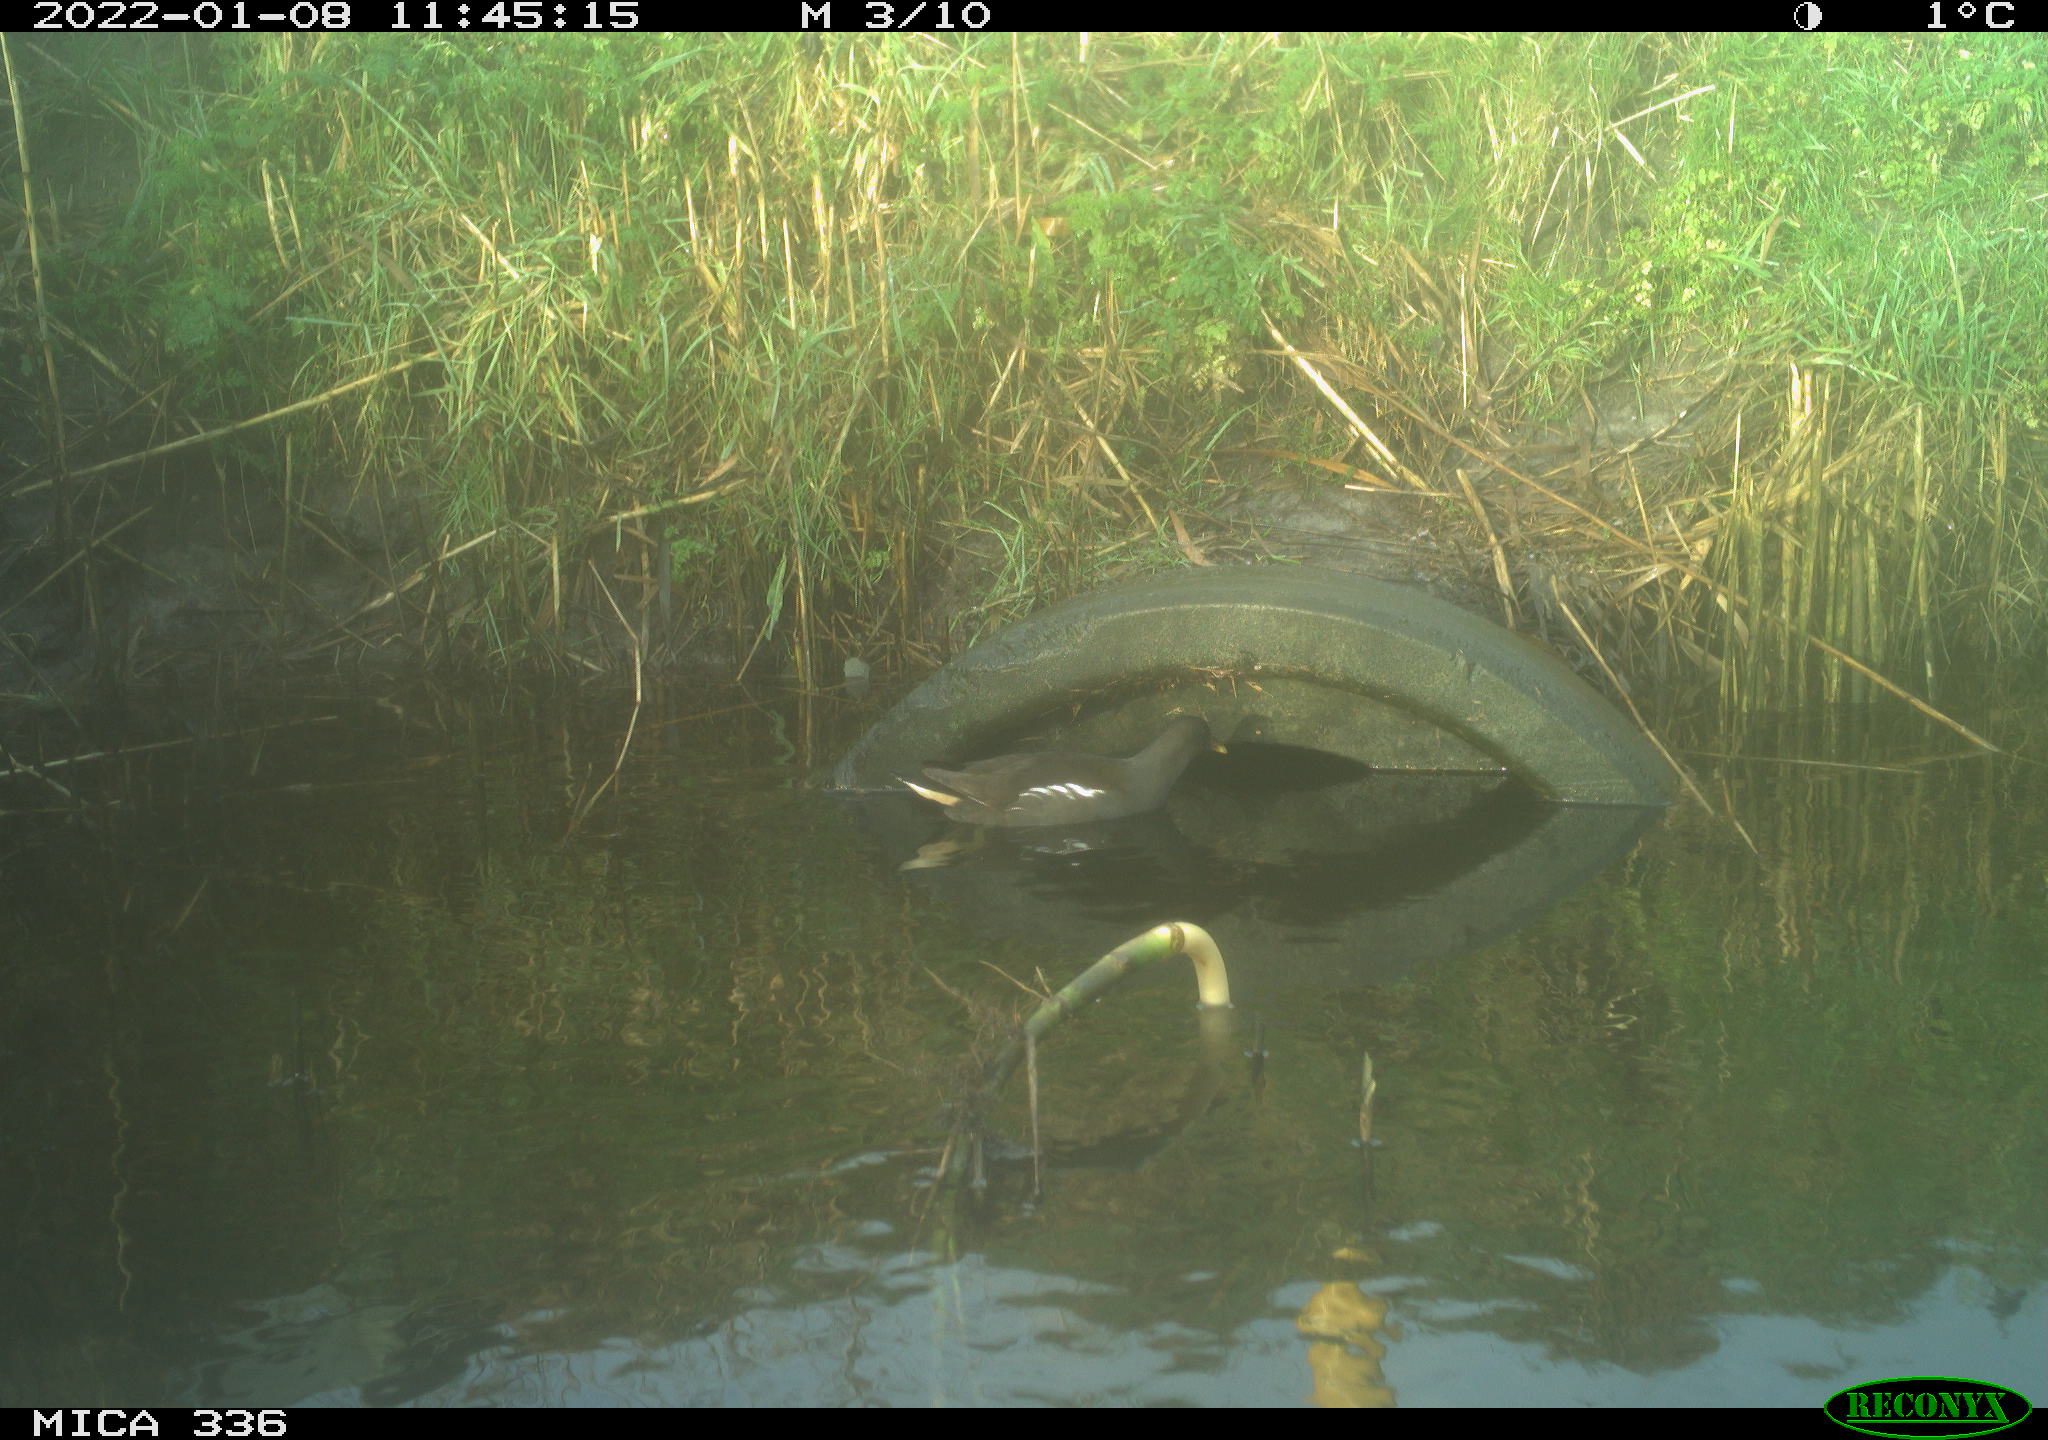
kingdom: Animalia
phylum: Chordata
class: Aves
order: Gruiformes
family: Rallidae
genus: Gallinula
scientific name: Gallinula chloropus
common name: Common moorhen
